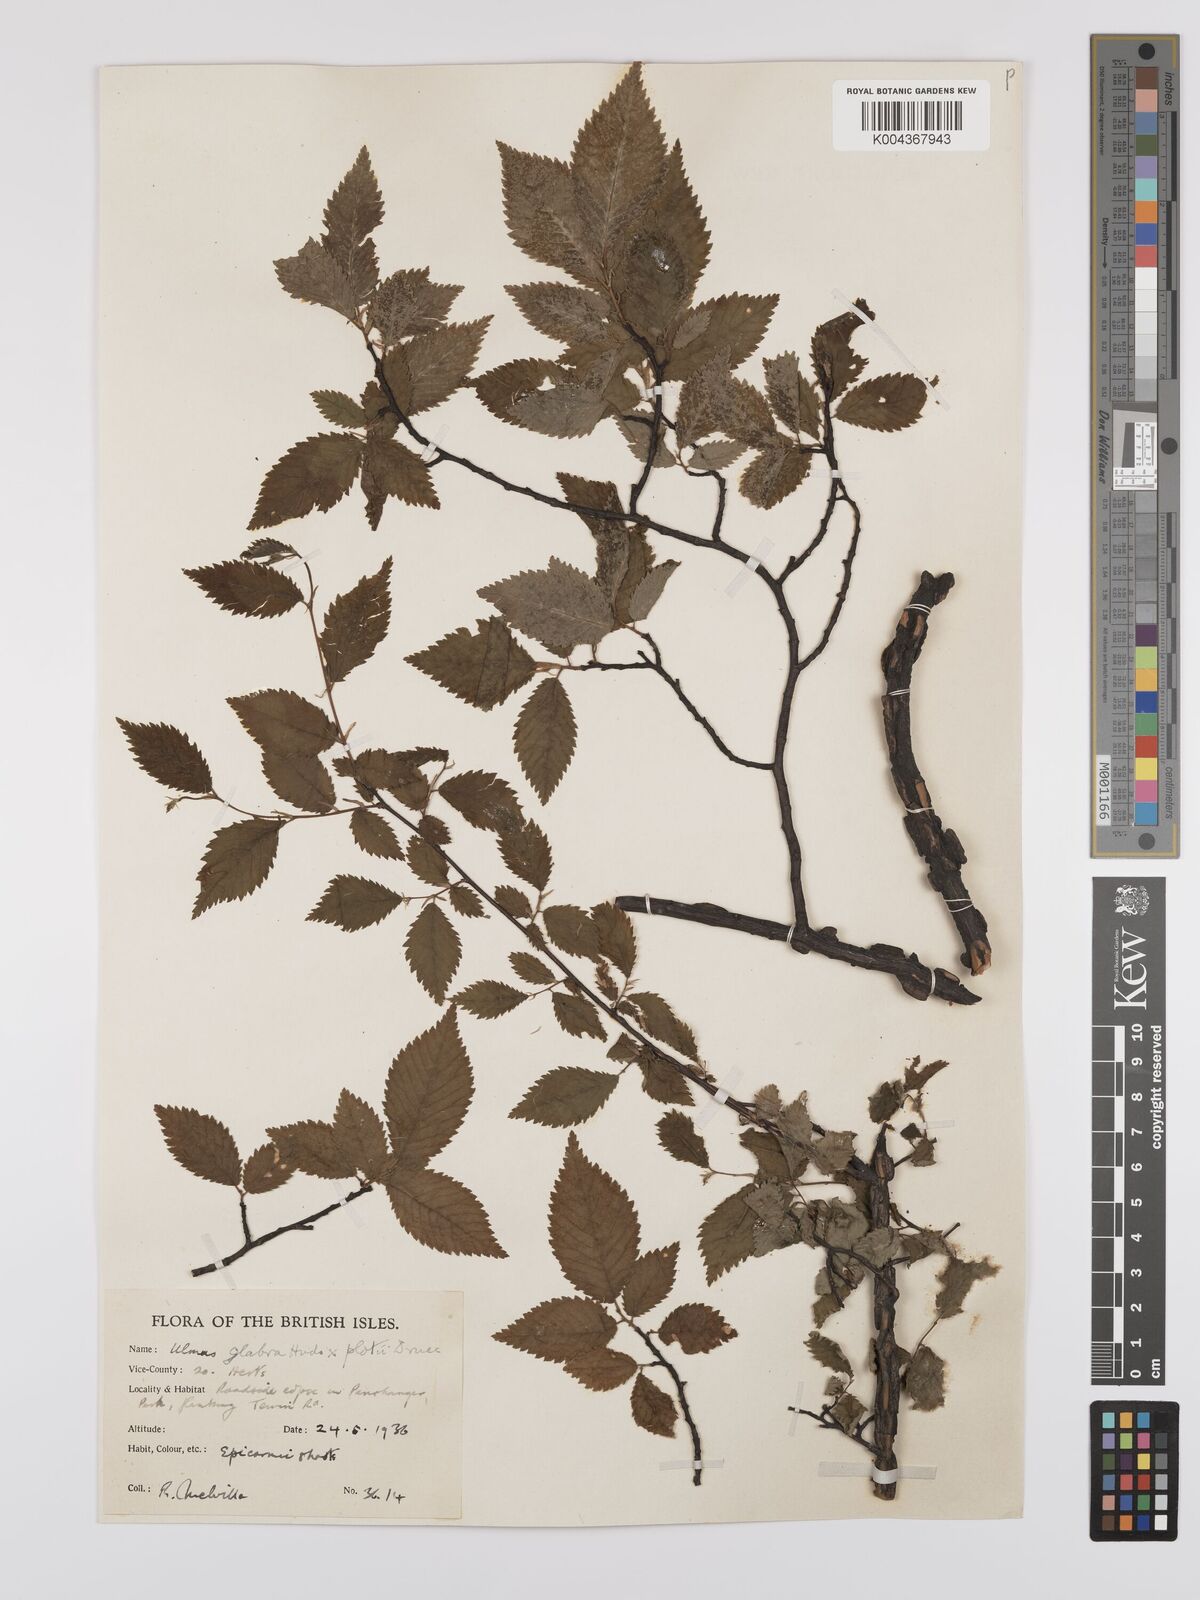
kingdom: Plantae
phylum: Tracheophyta
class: Magnoliopsida
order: Rosales
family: Ulmaceae
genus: Ulmus
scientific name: Ulmus glabra
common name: Wych elm
